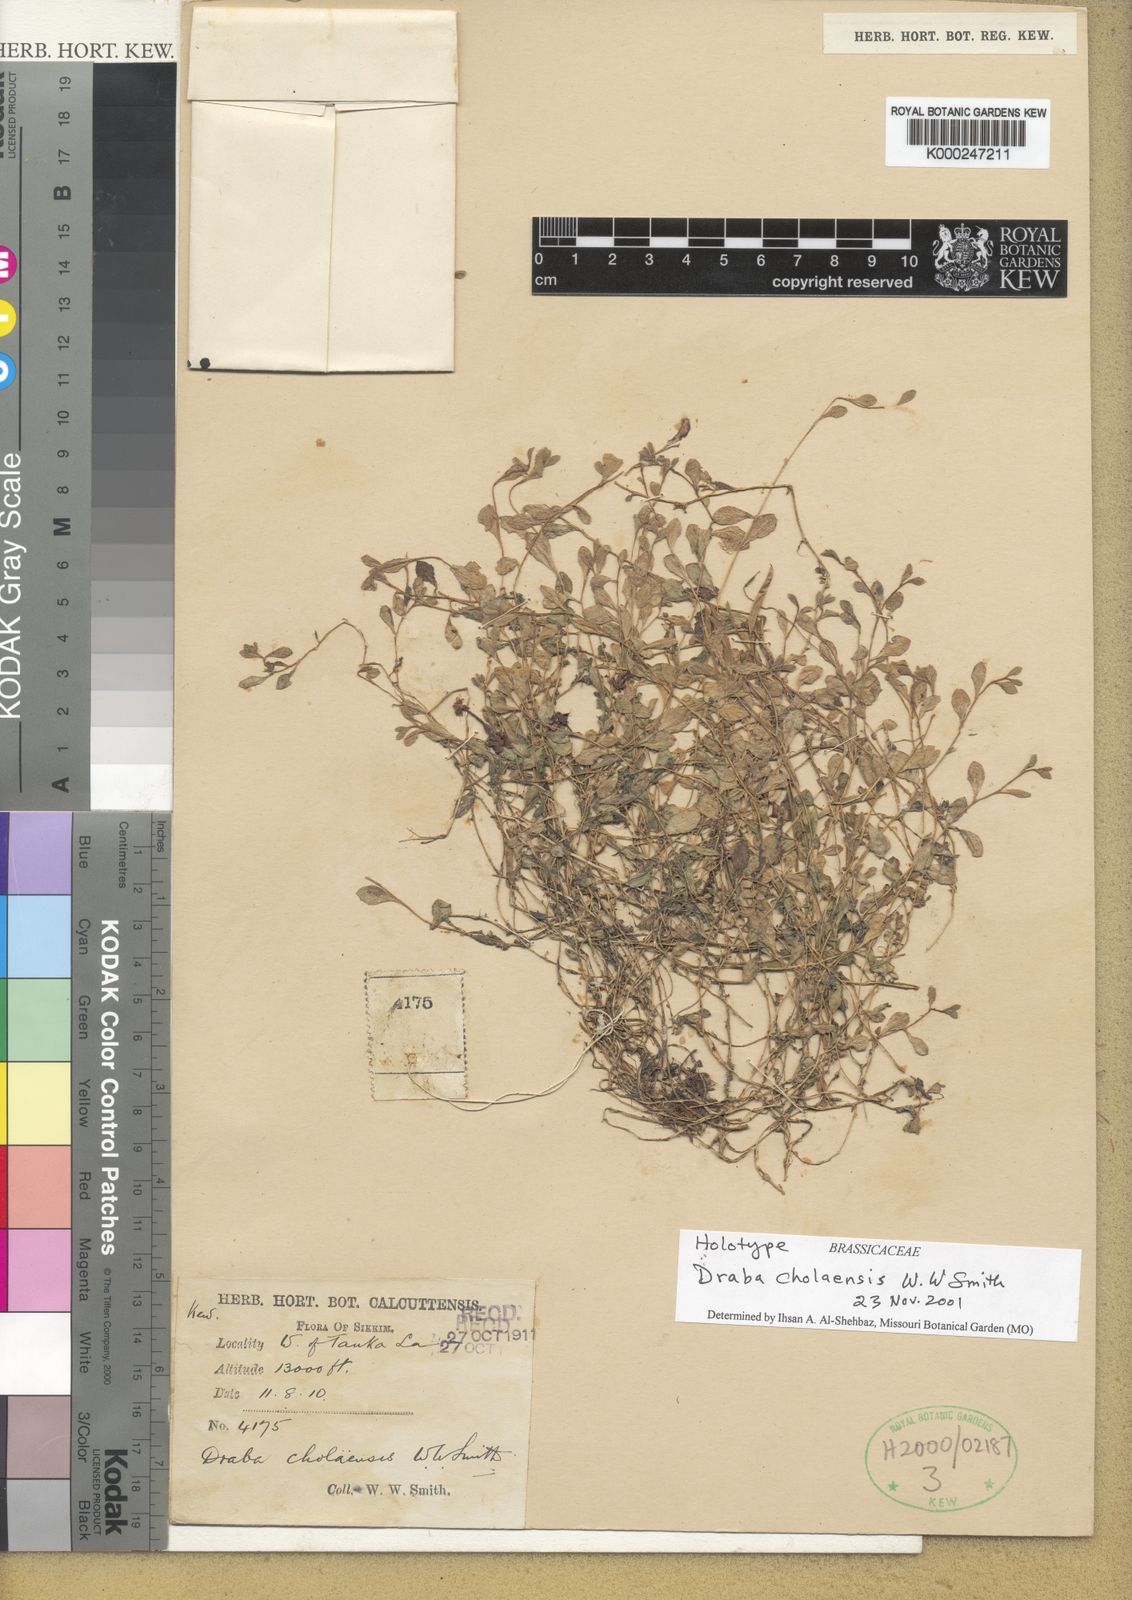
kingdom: Plantae
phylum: Tracheophyta
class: Magnoliopsida
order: Brassicales
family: Brassicaceae
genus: Draba
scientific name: Draba cholaensis
